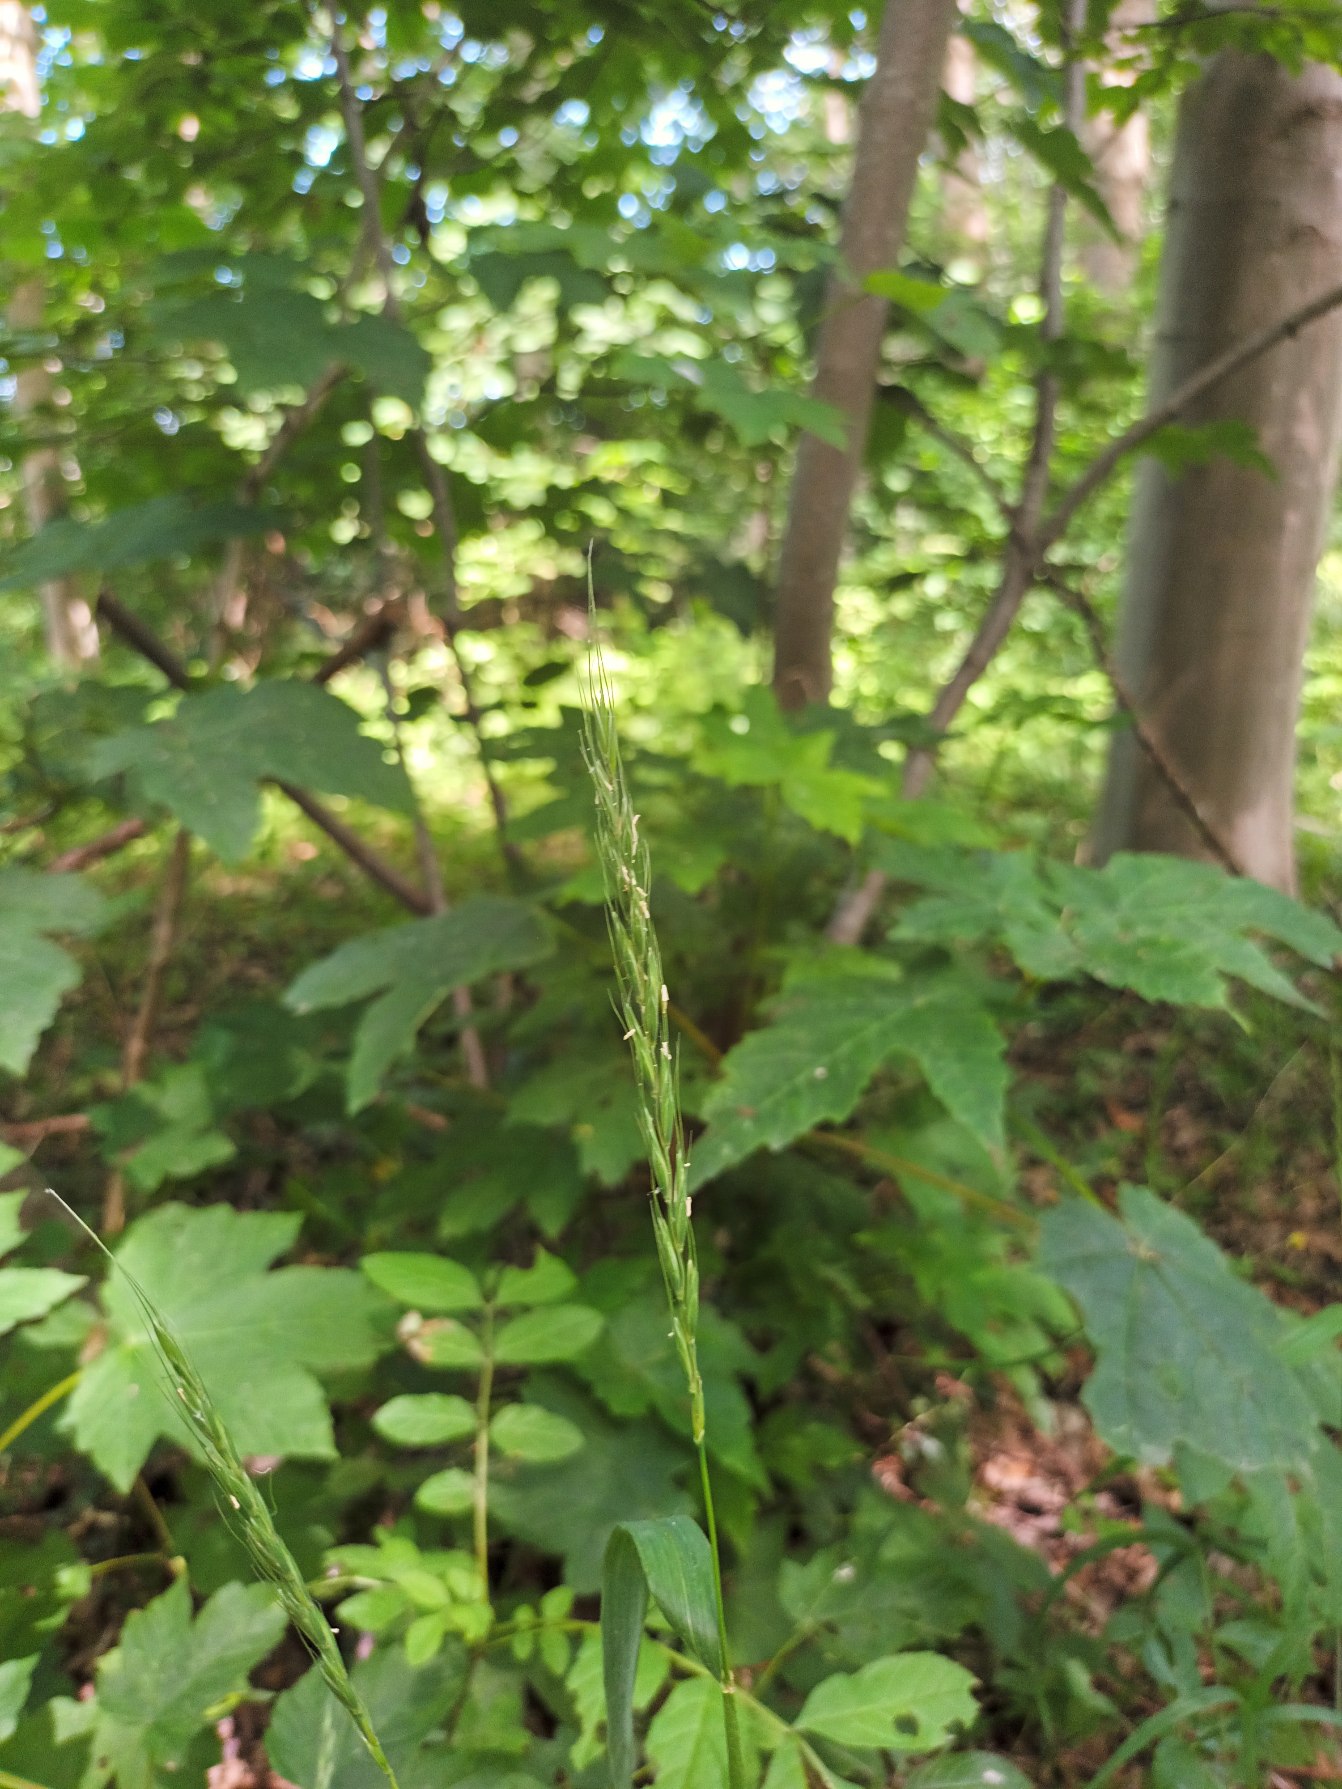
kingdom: Plantae
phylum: Tracheophyta
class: Liliopsida
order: Poales
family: Poaceae
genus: Elymus
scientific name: Elymus caninus
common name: Hundekvik
